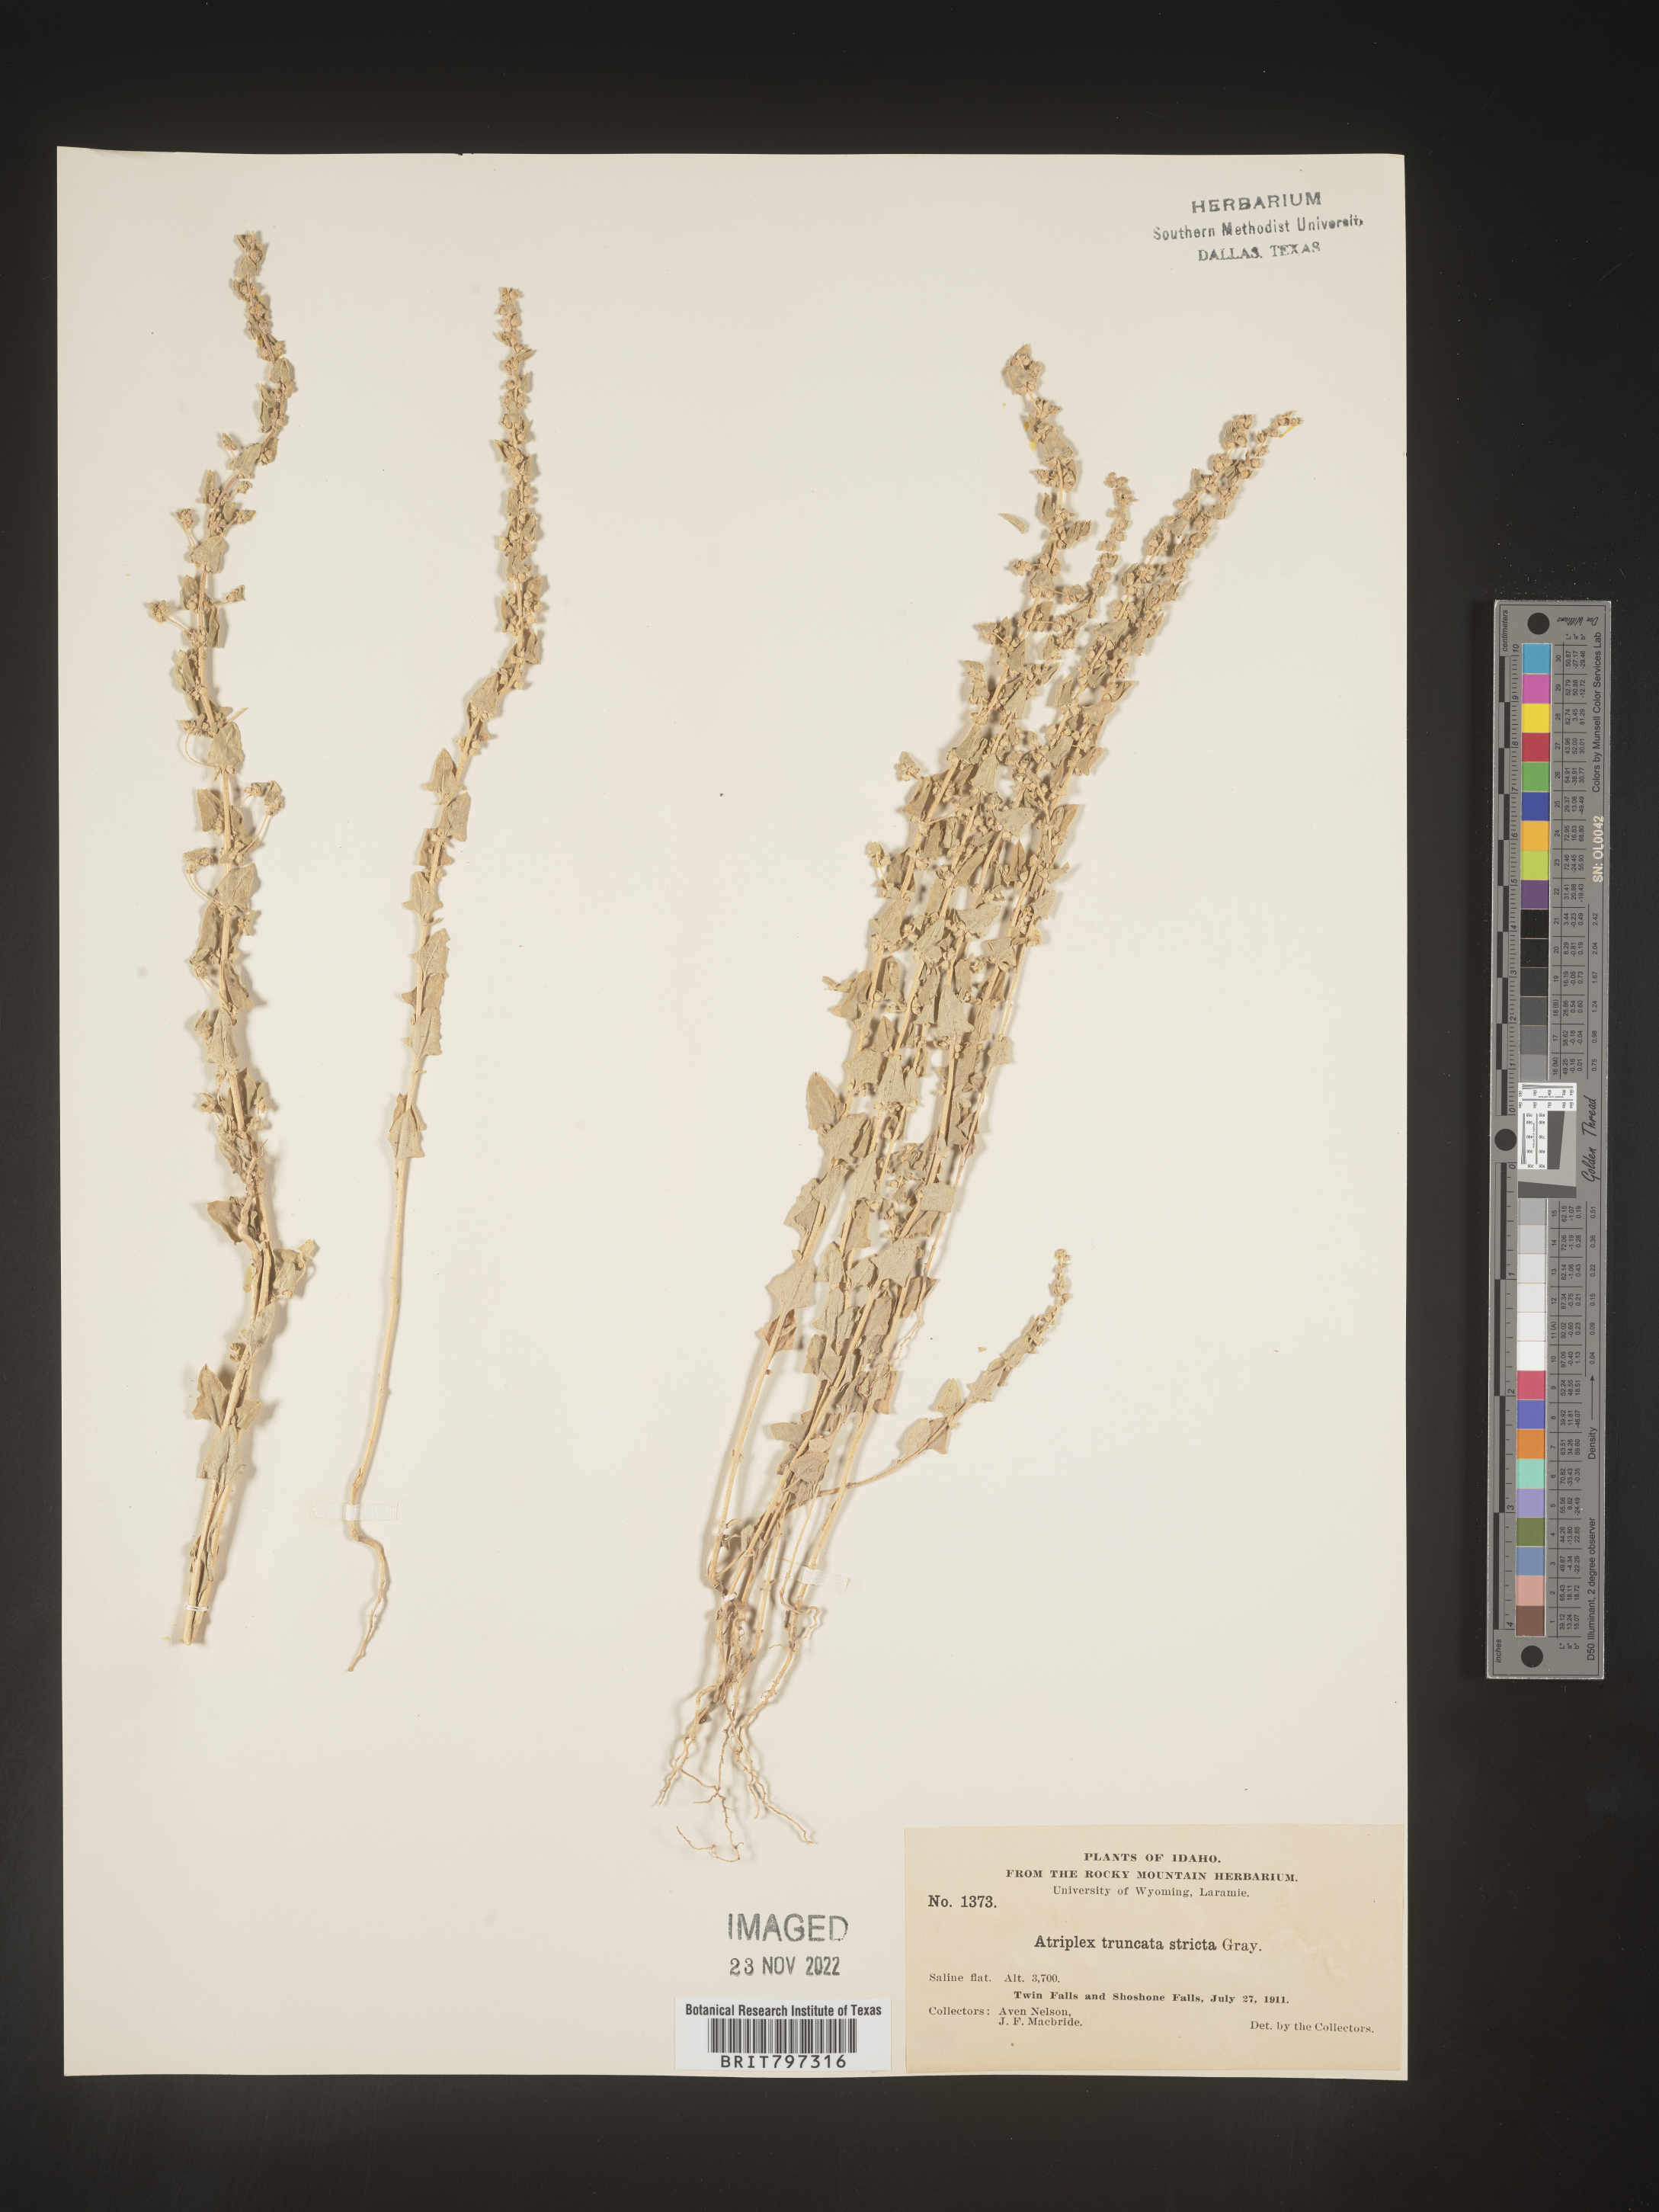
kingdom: Plantae
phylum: Tracheophyta
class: Magnoliopsida
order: Caryophyllales
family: Amaranthaceae
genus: Atriplex
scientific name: Atriplex
